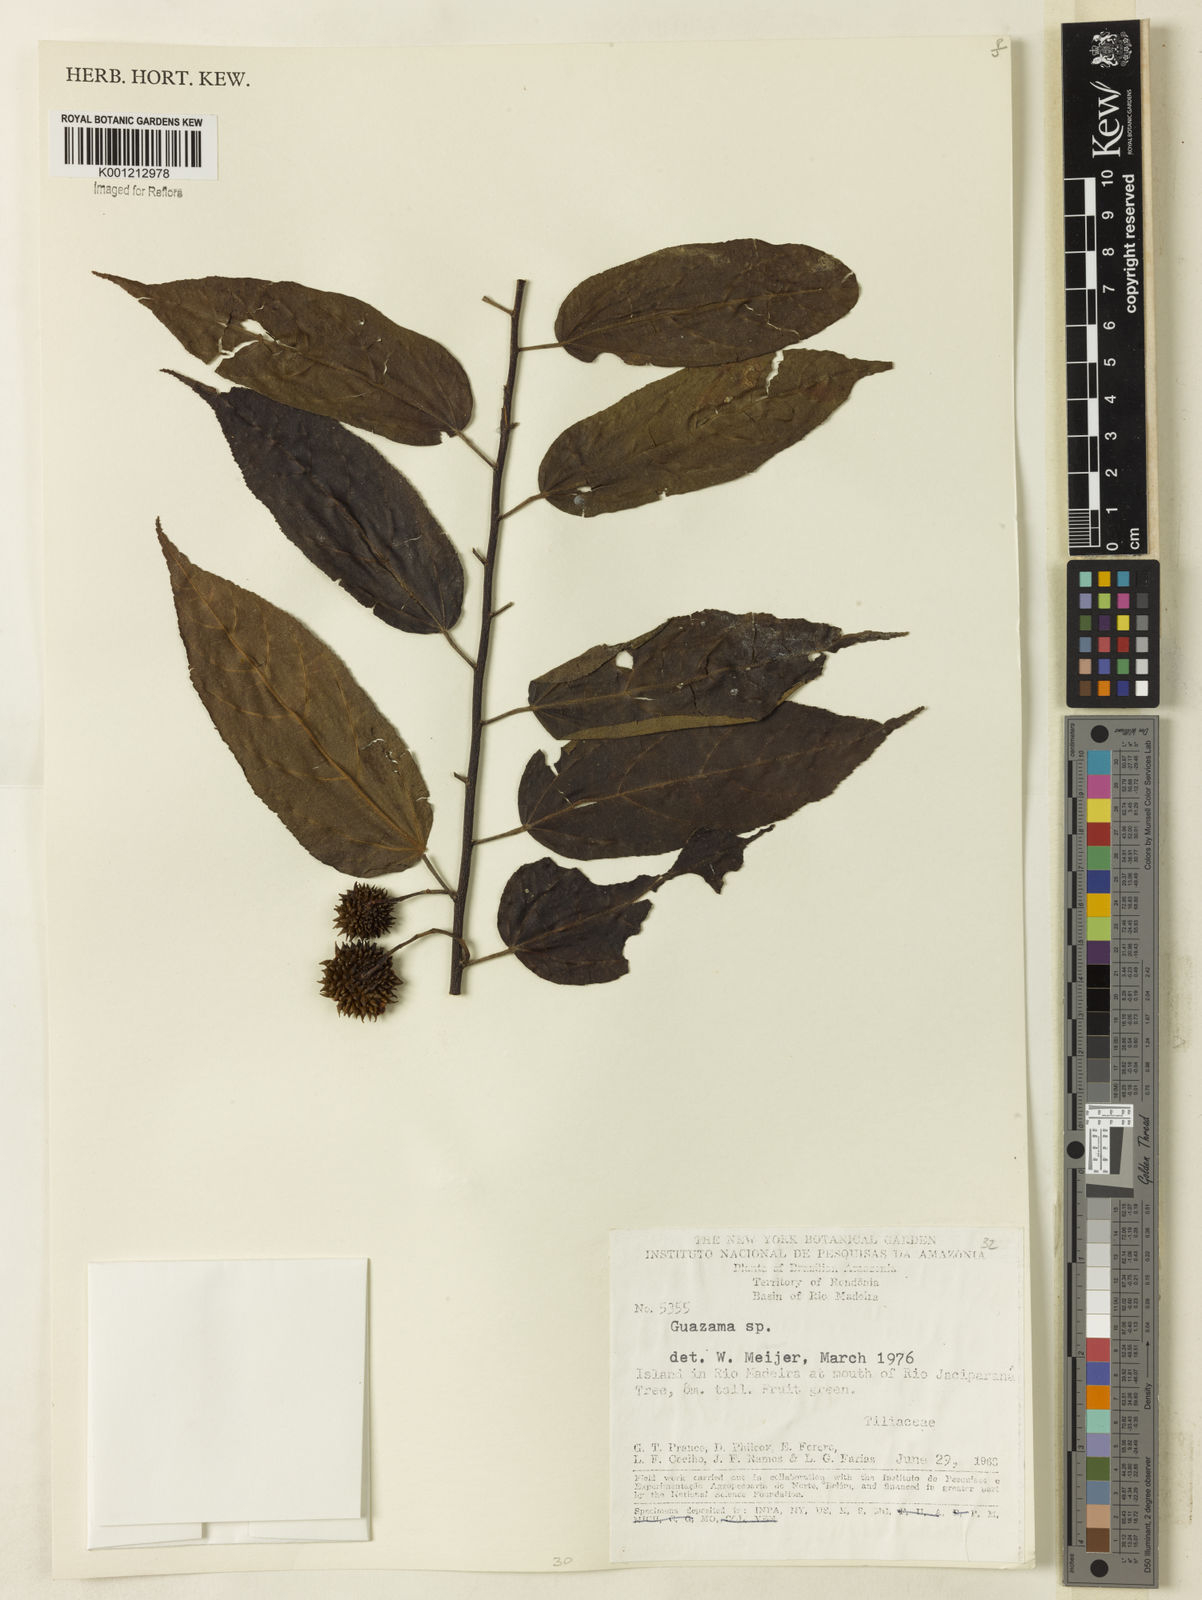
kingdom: Plantae
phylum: Tracheophyta
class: Magnoliopsida
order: Malvales
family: Malvaceae
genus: Guazuma
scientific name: Guazuma
